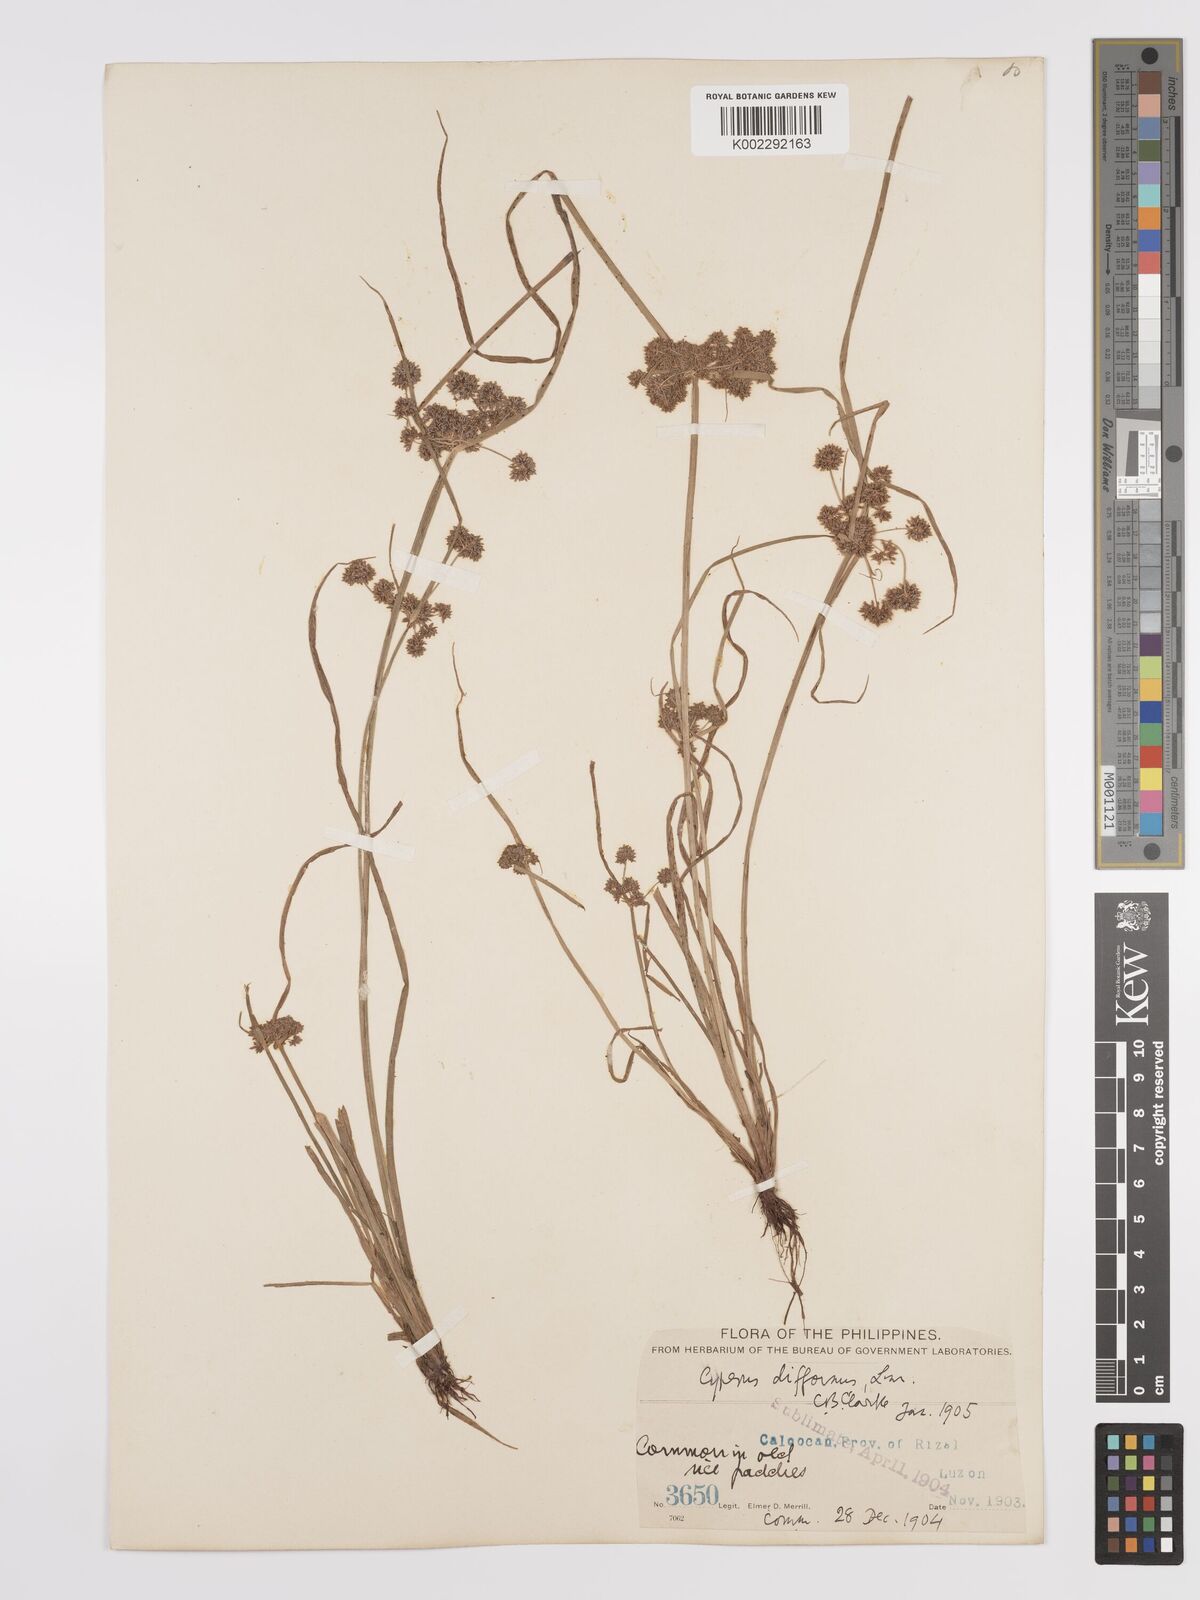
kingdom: Plantae
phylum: Tracheophyta
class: Liliopsida
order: Poales
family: Cyperaceae
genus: Cyperus
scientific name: Cyperus difformis
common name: Variable flatsedge
